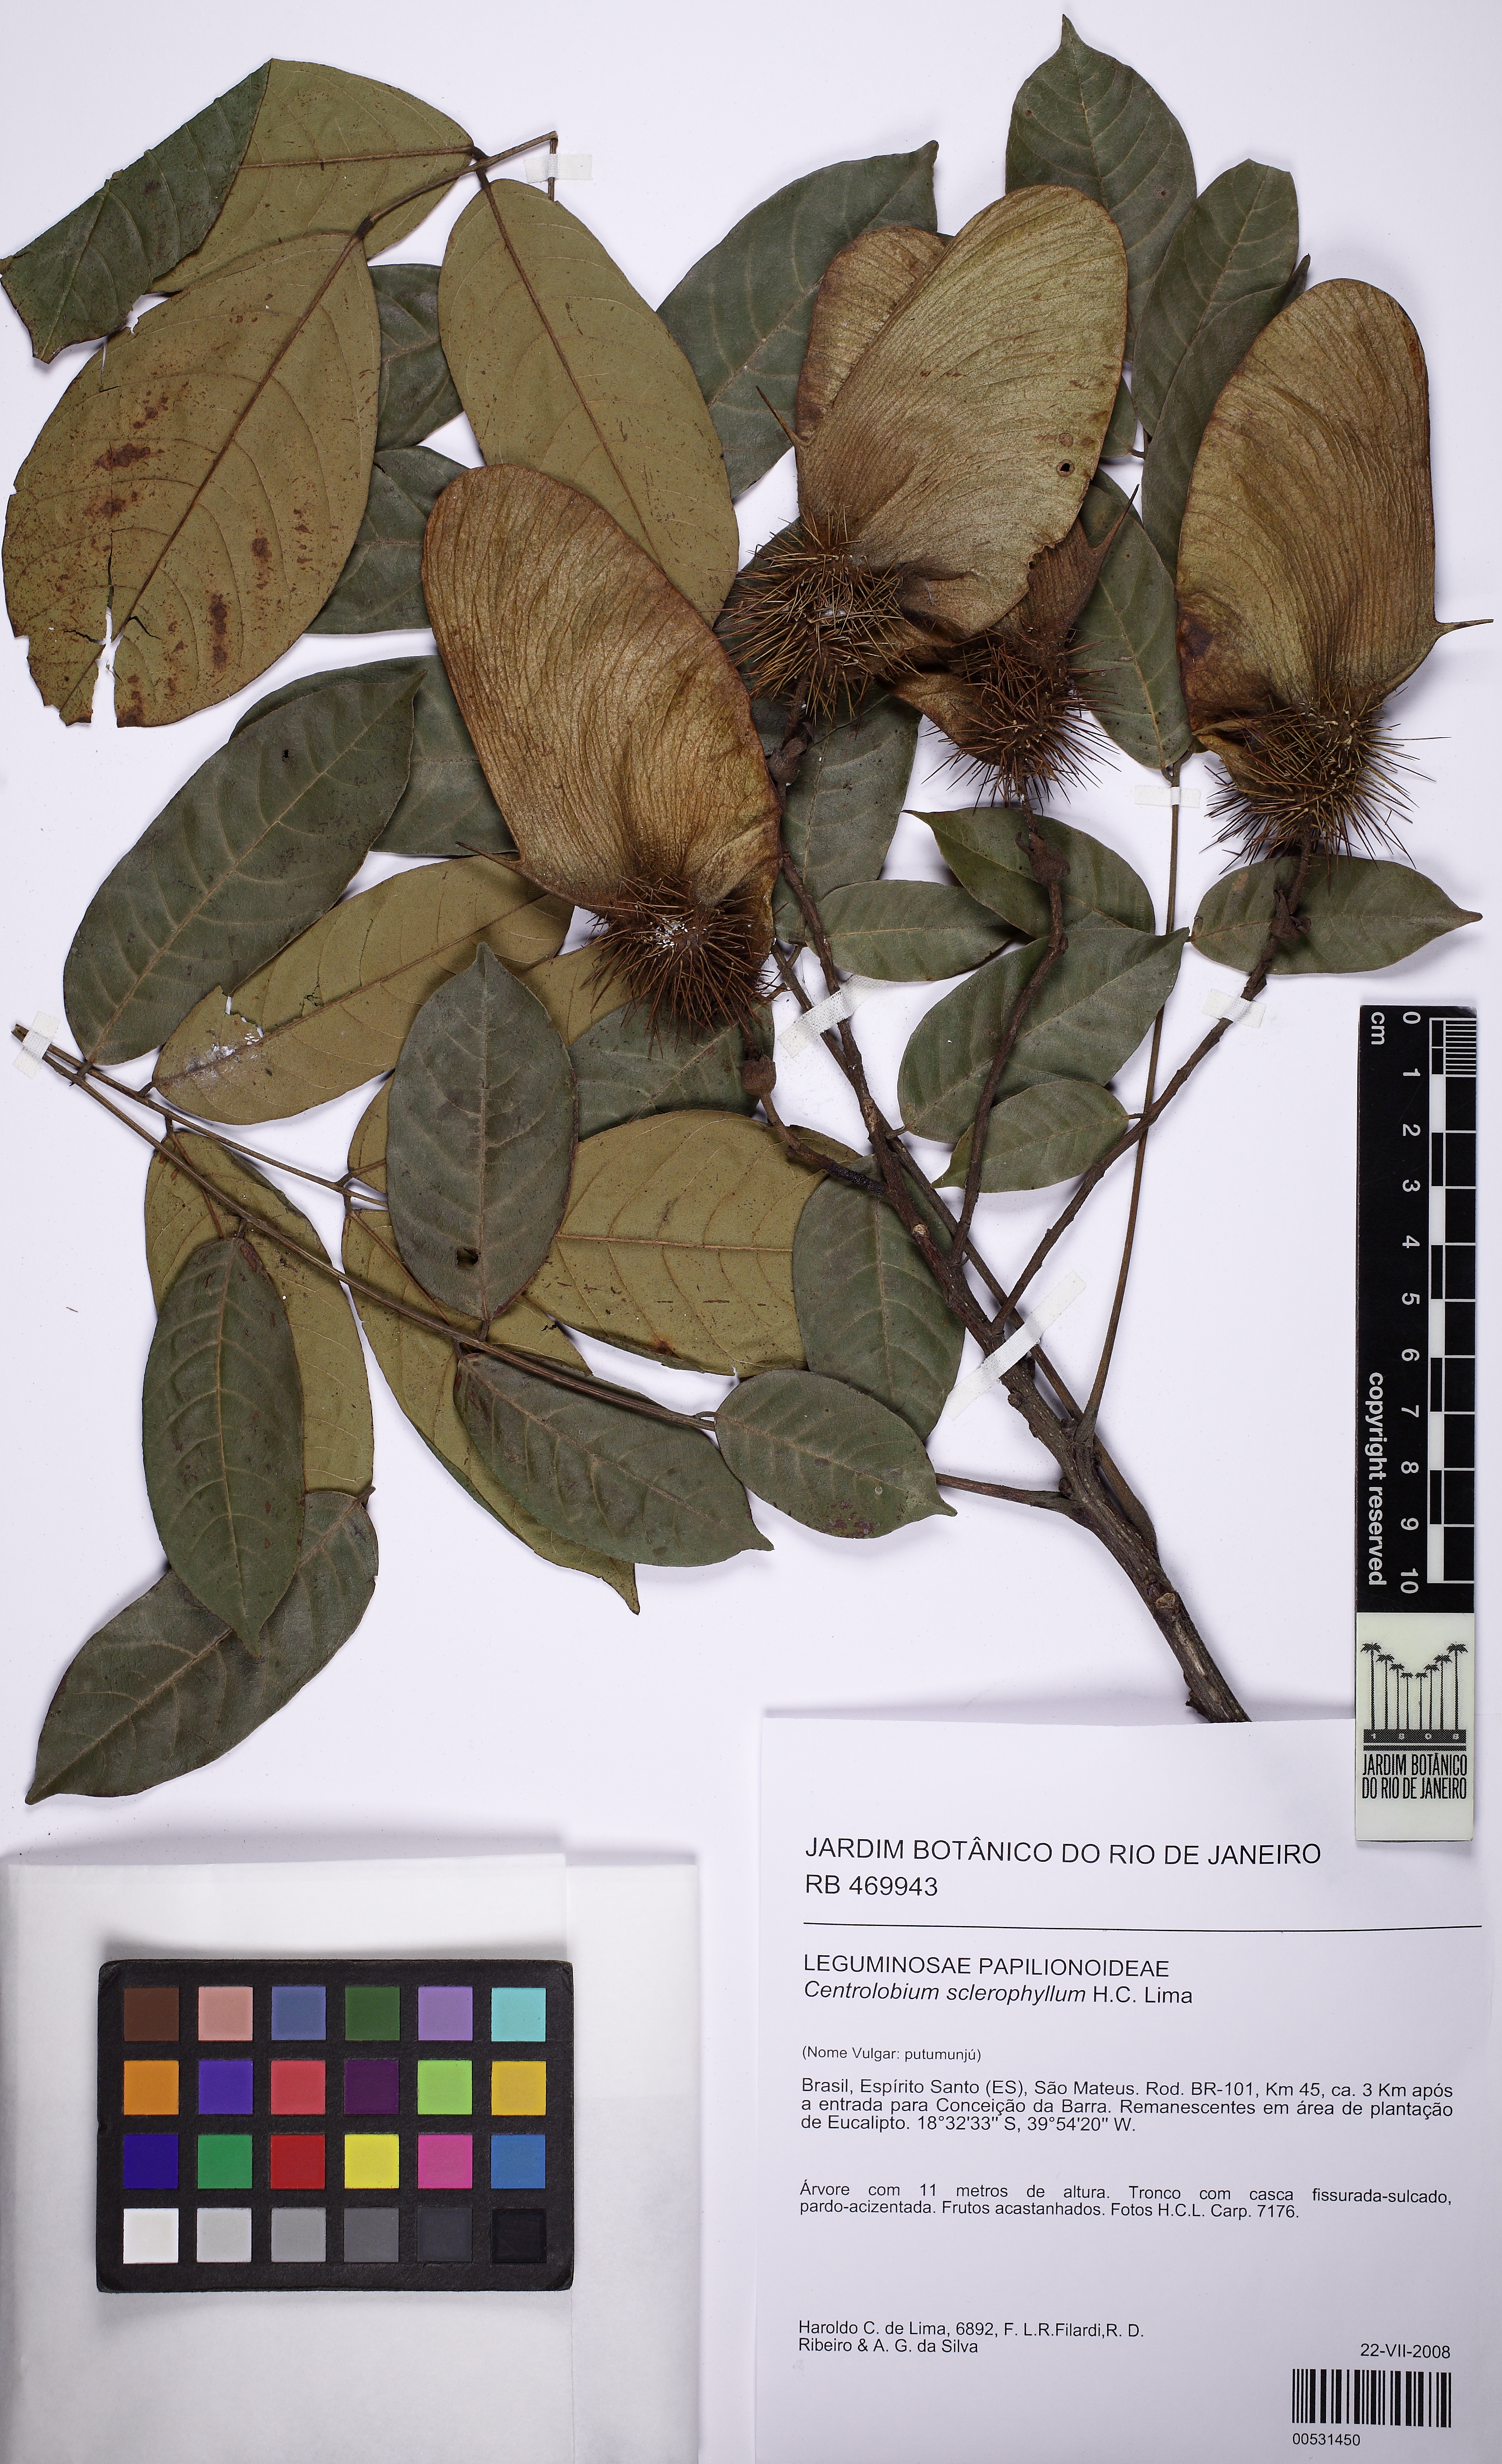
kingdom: Plantae
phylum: Tracheophyta
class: Magnoliopsida
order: Fabales
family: Fabaceae
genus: Centrolobium
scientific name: Centrolobium sclerophyllum
